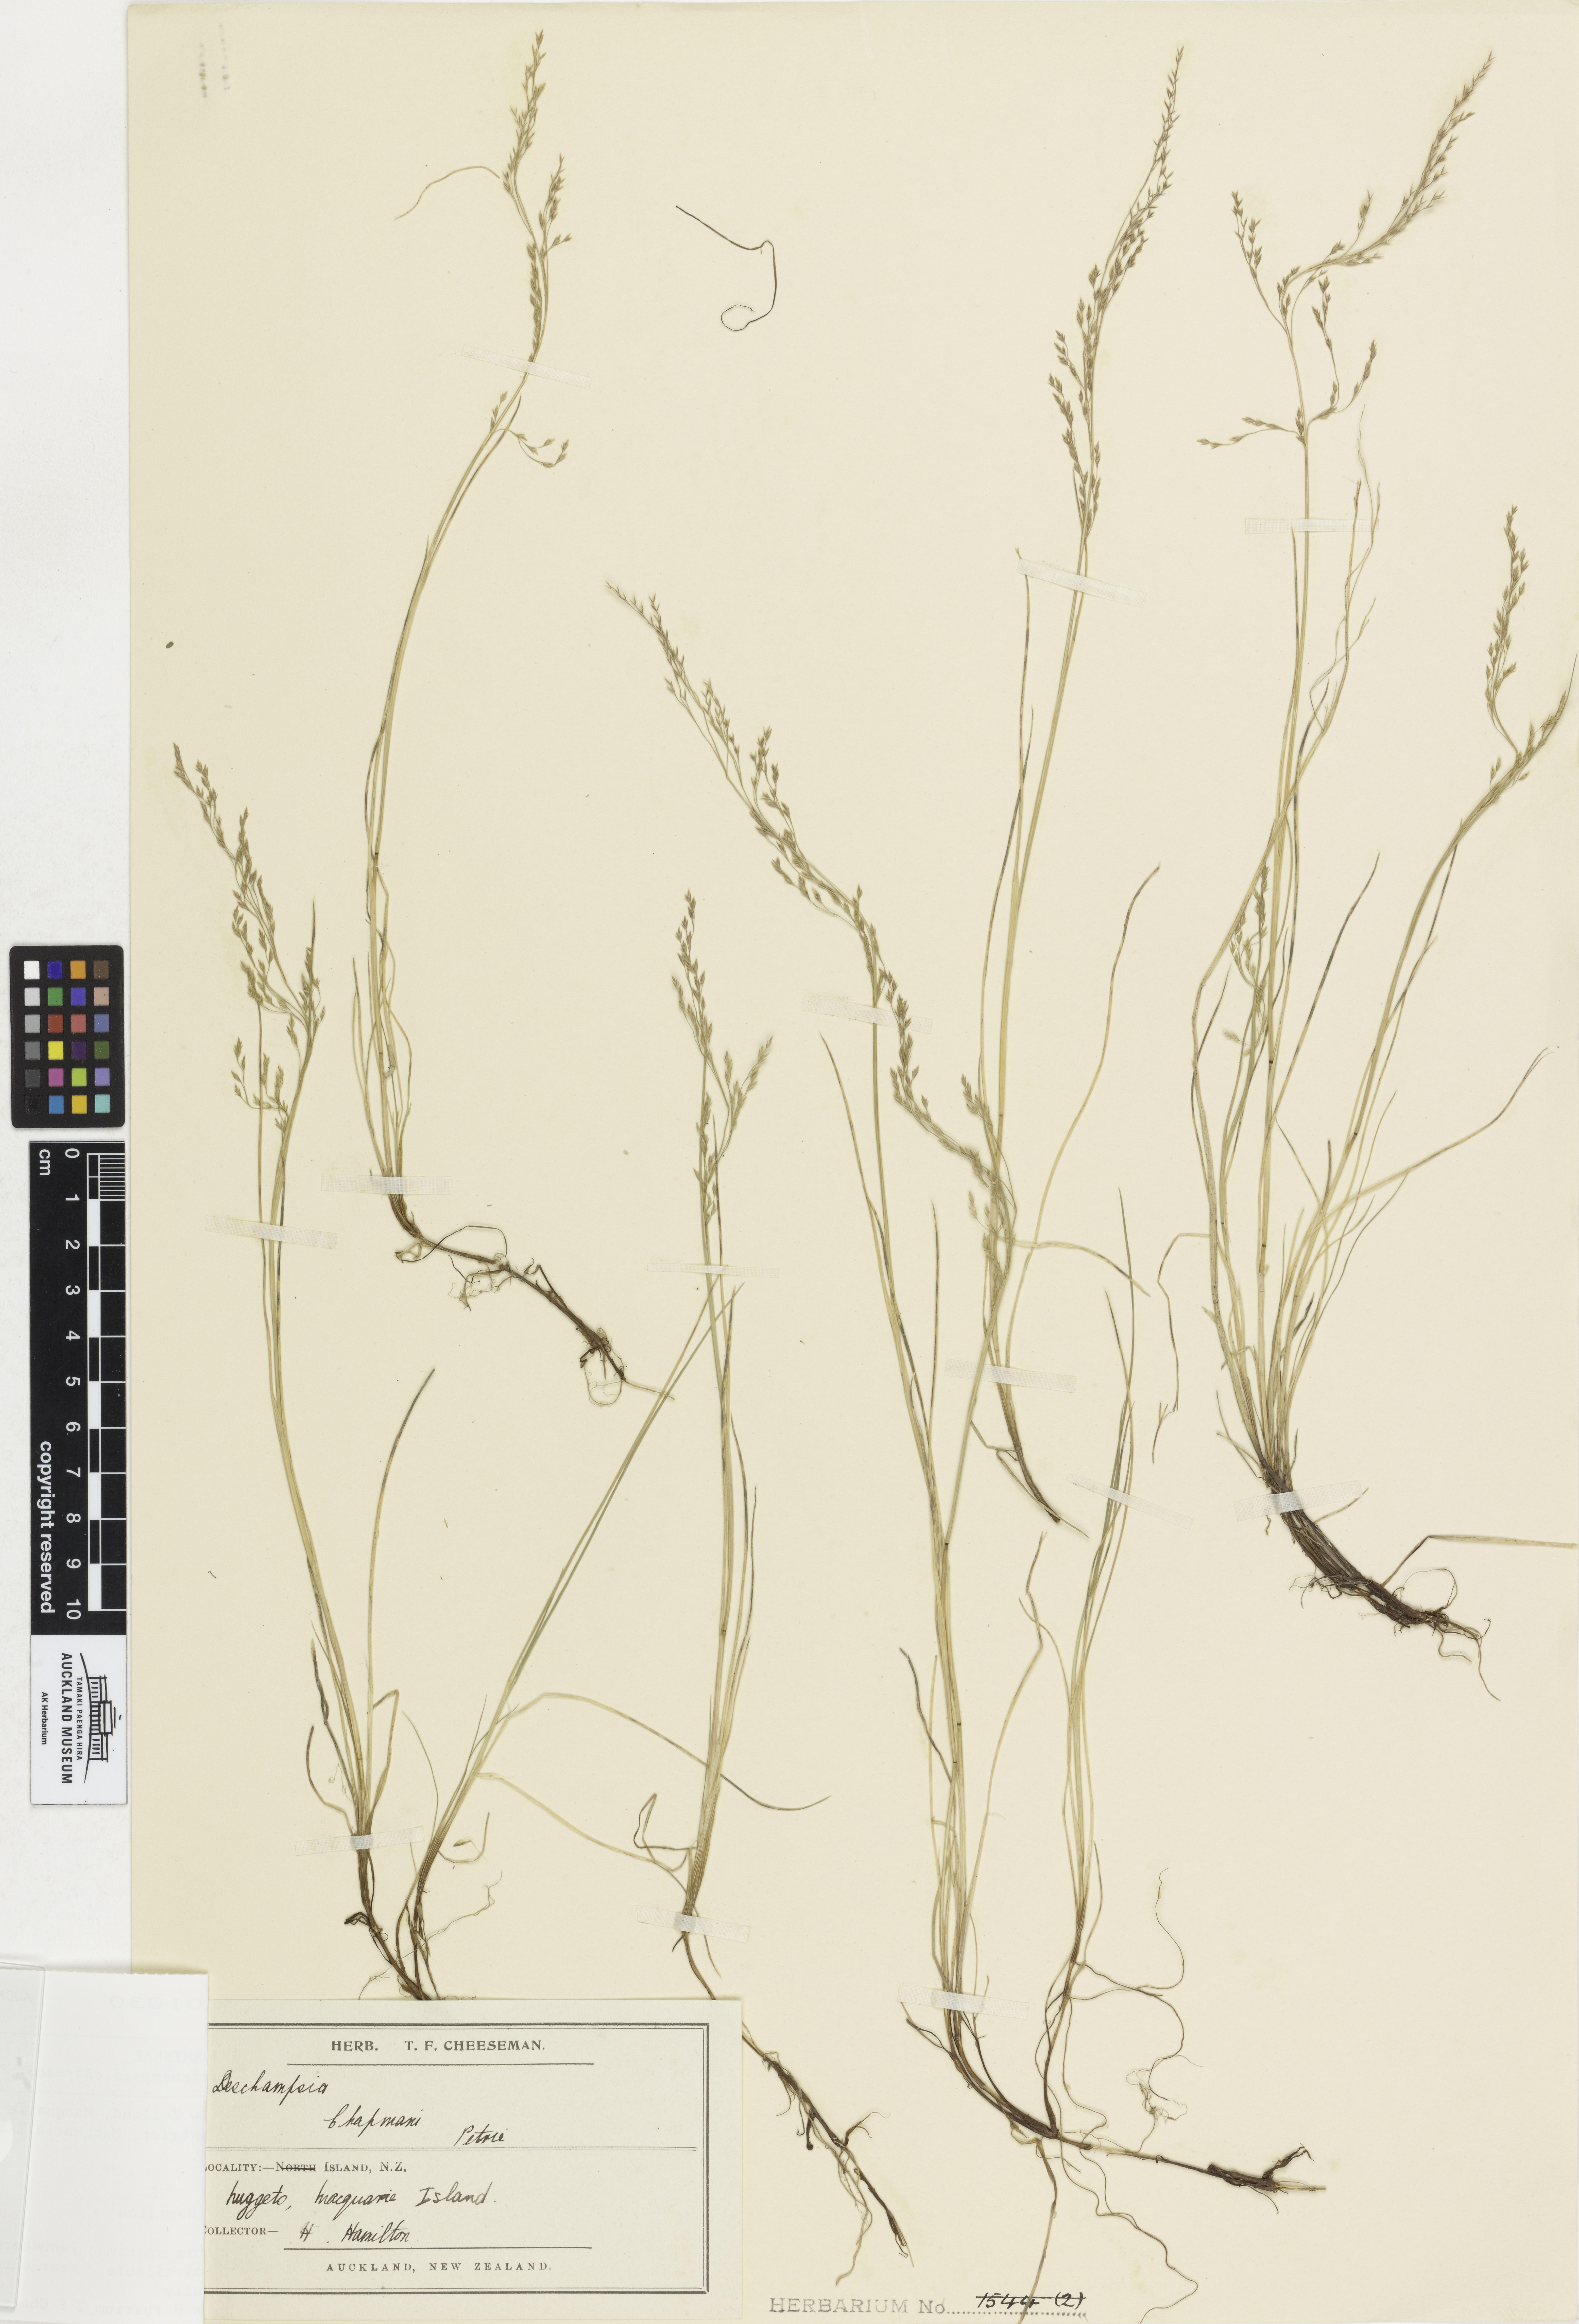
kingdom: Plantae
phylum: Tracheophyta
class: Liliopsida
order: Poales
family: Poaceae
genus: Deschampsia
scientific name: Deschampsia chapmanii
